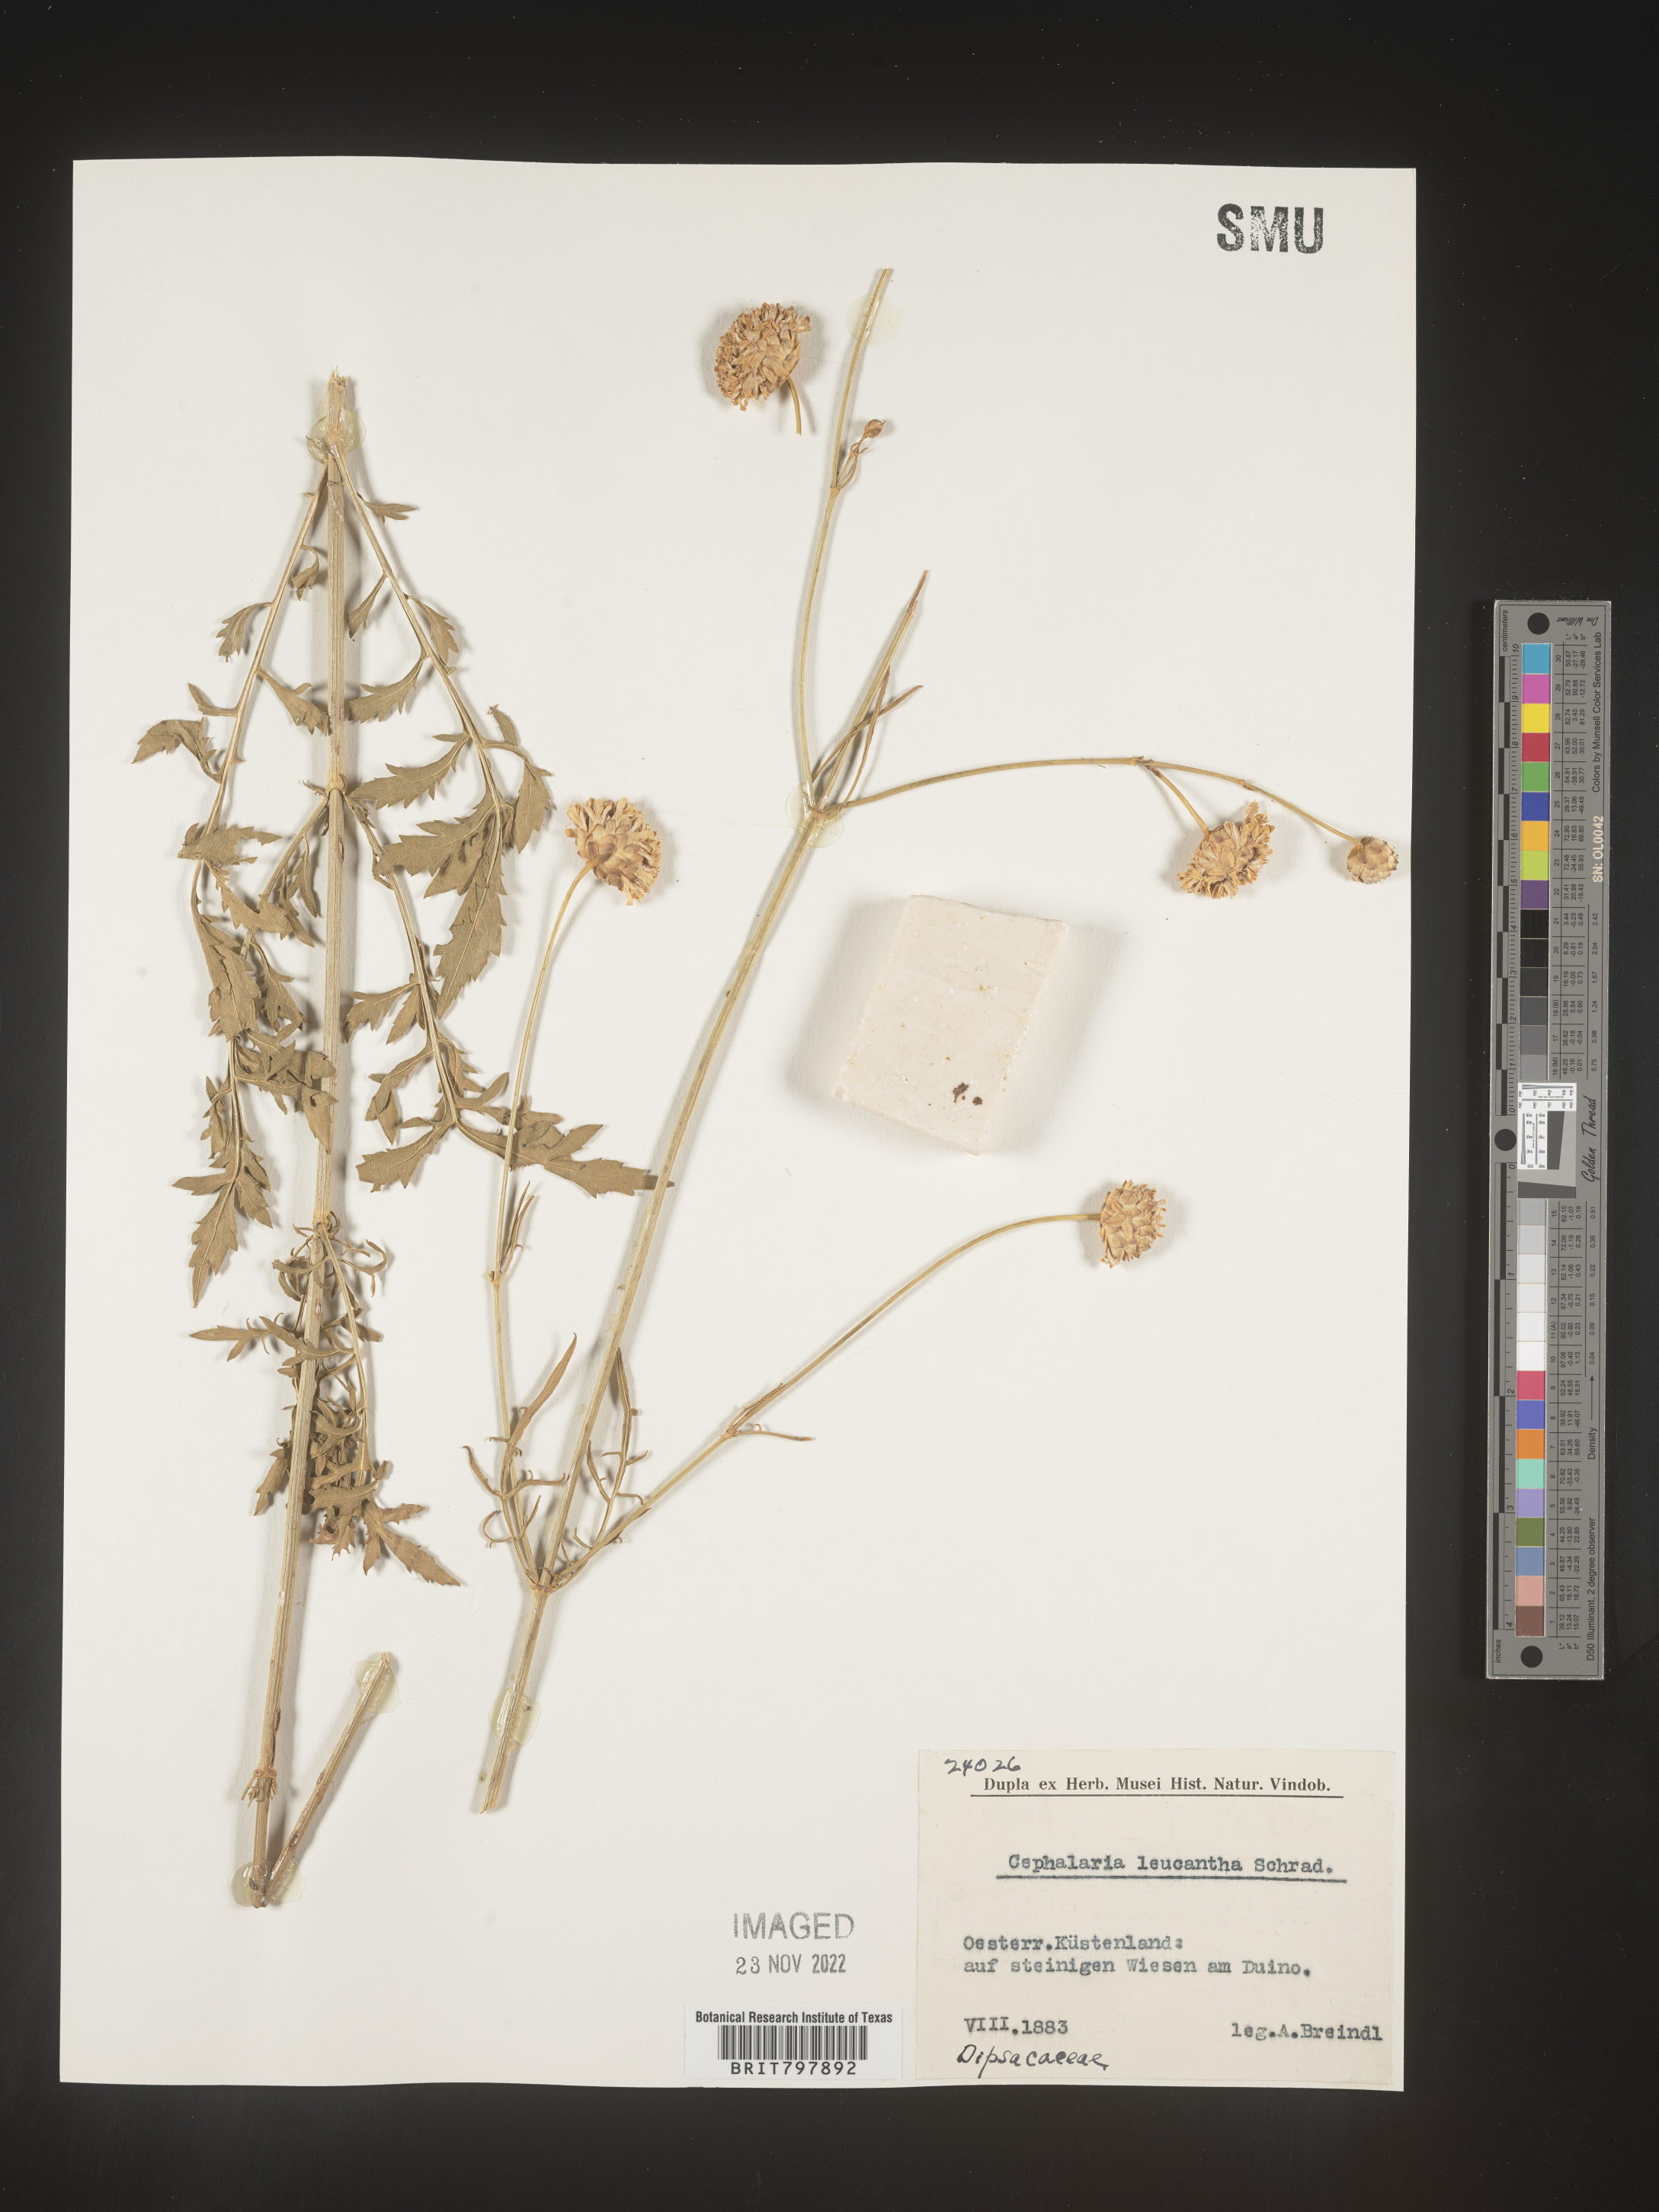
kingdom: Plantae
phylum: Tracheophyta
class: Magnoliopsida
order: Dipsacales
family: Caprifoliaceae
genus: Cephalaria
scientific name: Cephalaria
